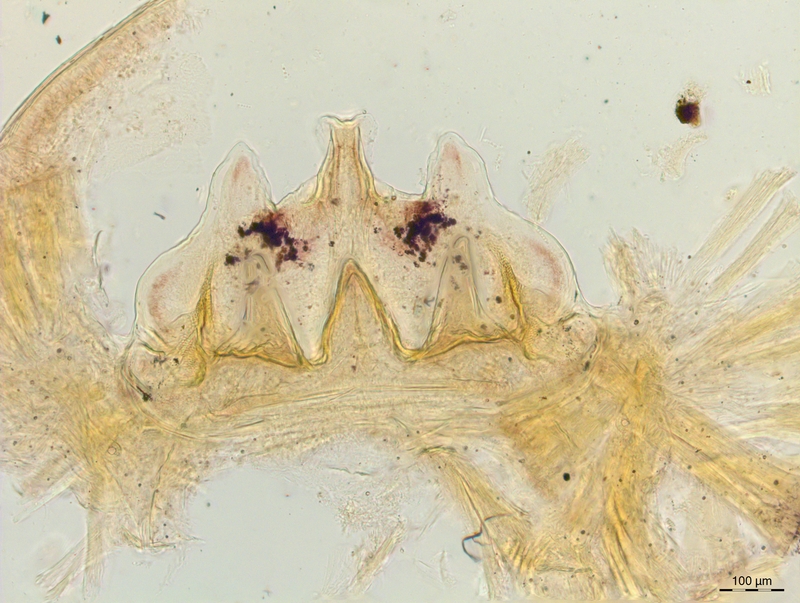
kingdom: Animalia
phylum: Arthropoda
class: Diplopoda
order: Chordeumatida
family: Craspedosomatidae
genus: Craspedosoma
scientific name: Craspedosoma alemannicum
